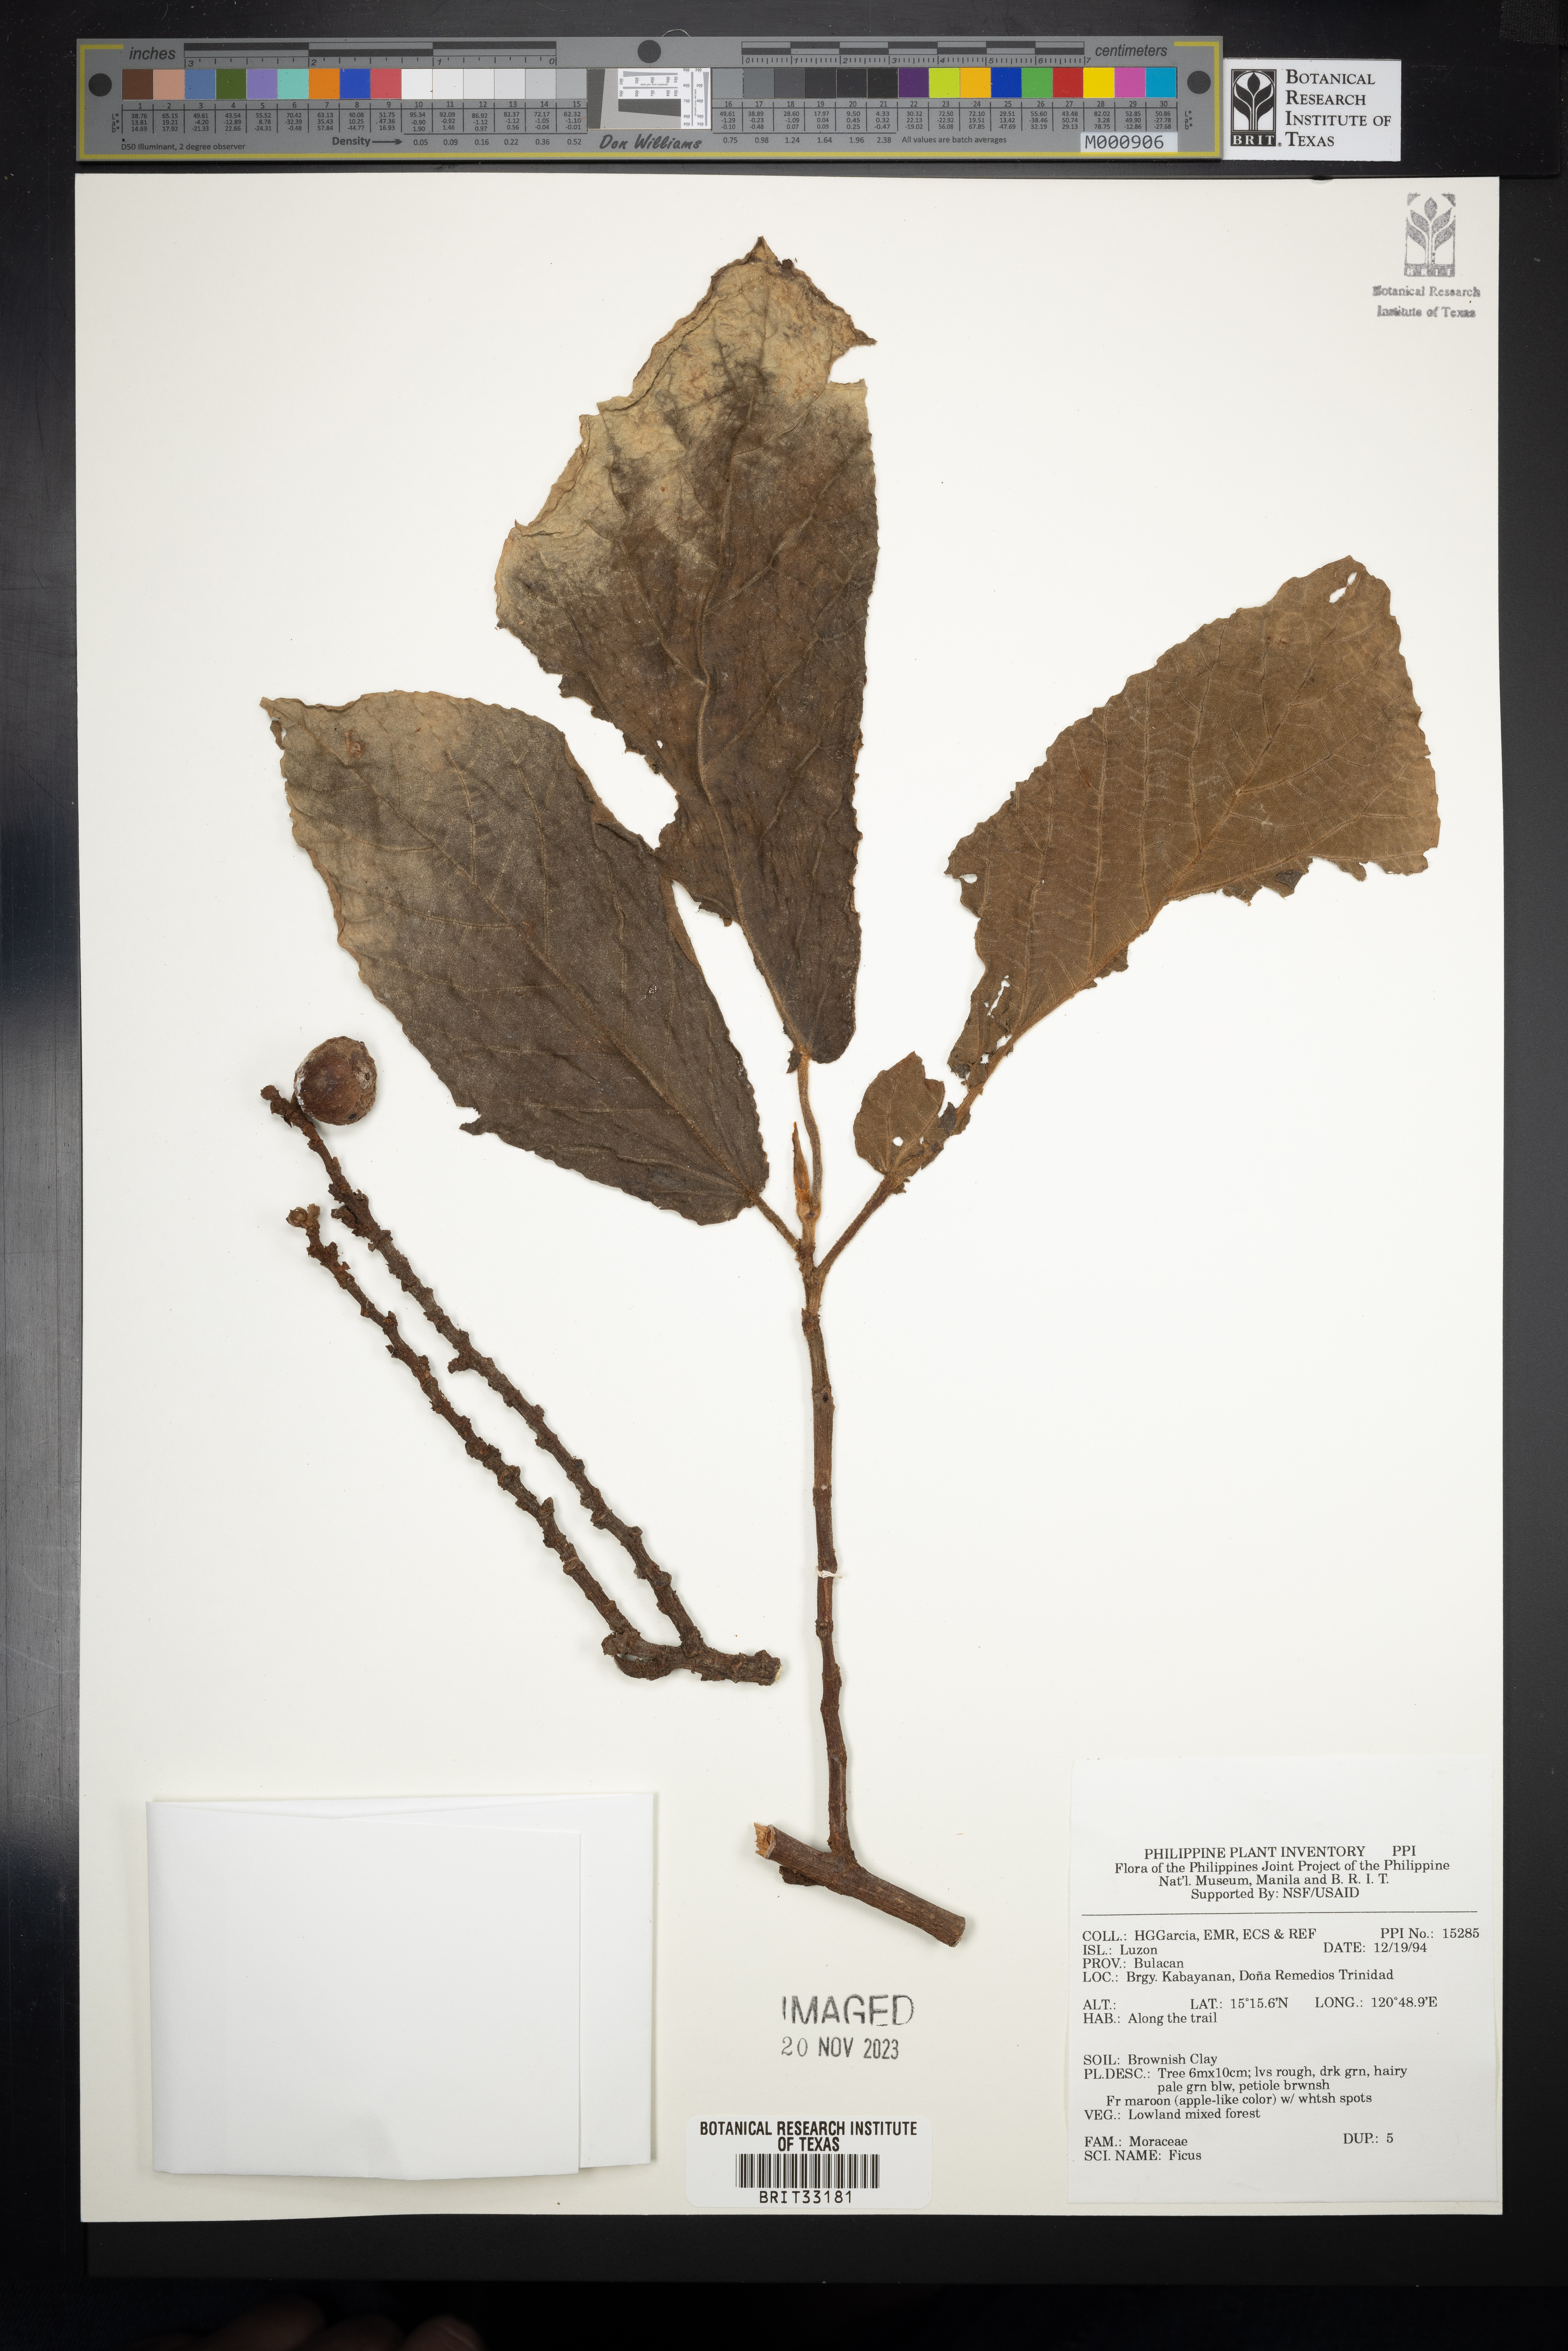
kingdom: Plantae
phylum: Tracheophyta
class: Magnoliopsida
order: Rosales
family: Moraceae
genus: Ficus
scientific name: Ficus
